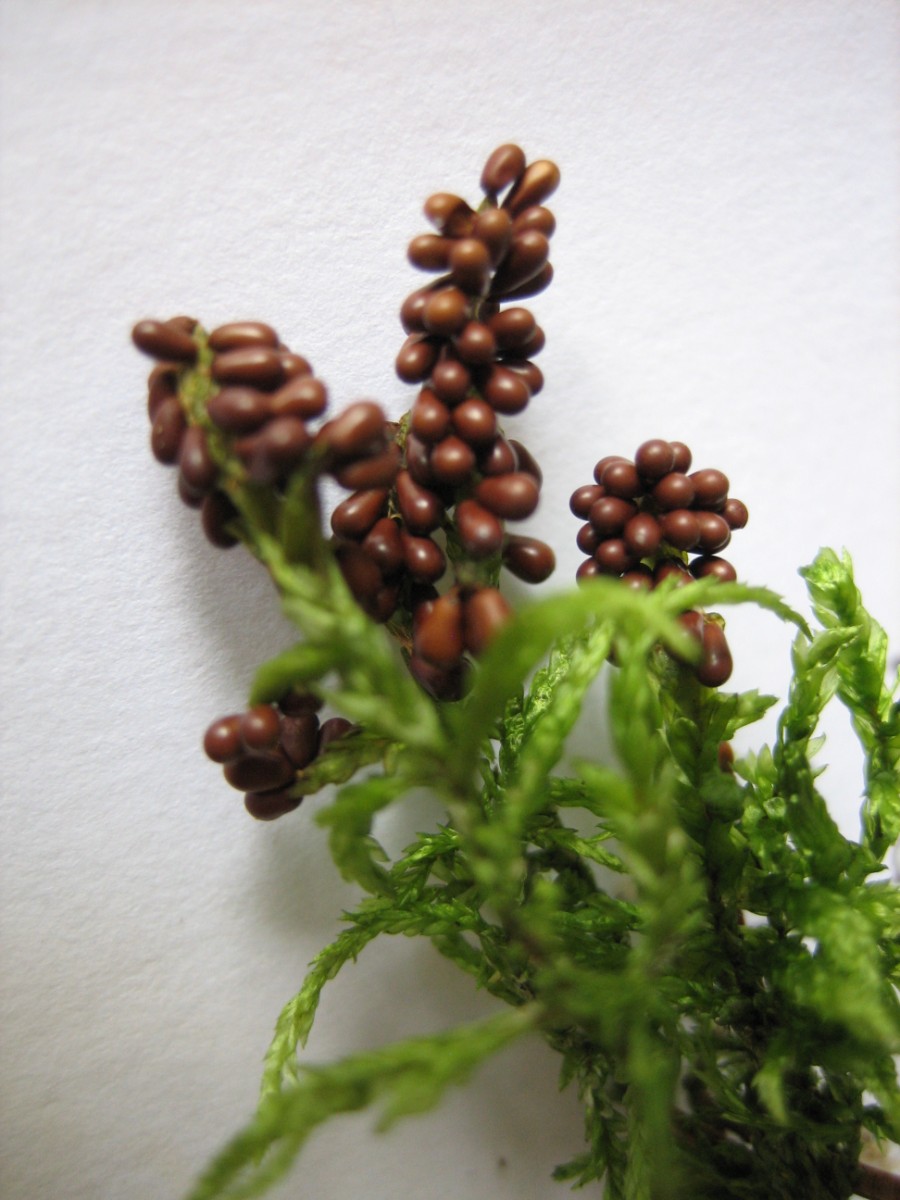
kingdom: Protozoa
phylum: Mycetozoa
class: Myxomycetes
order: Physarales
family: Physaraceae
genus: Leocarpus
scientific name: Leocarpus fragilis
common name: poleret glatfrø
